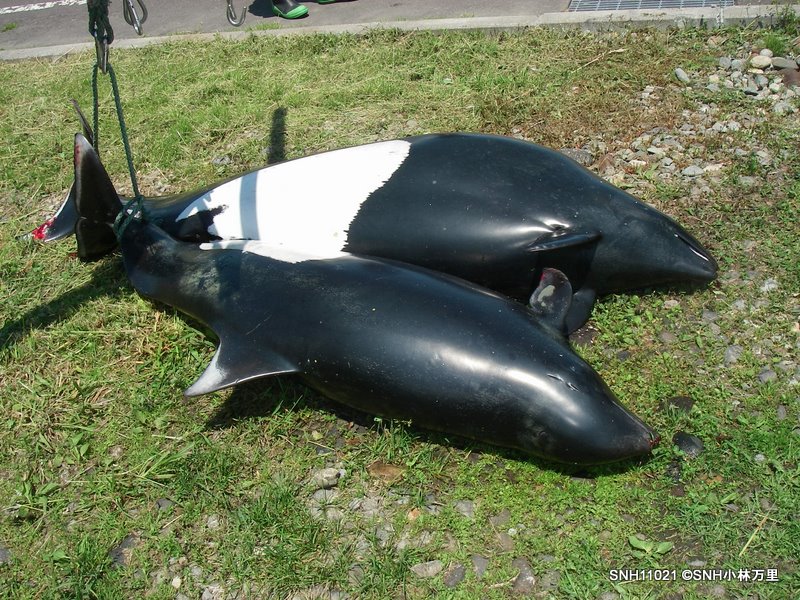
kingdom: Animalia
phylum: Chordata
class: Mammalia
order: Cetacea
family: Phocoenidae
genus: Phocoenoides
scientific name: Phocoenoides dalli
